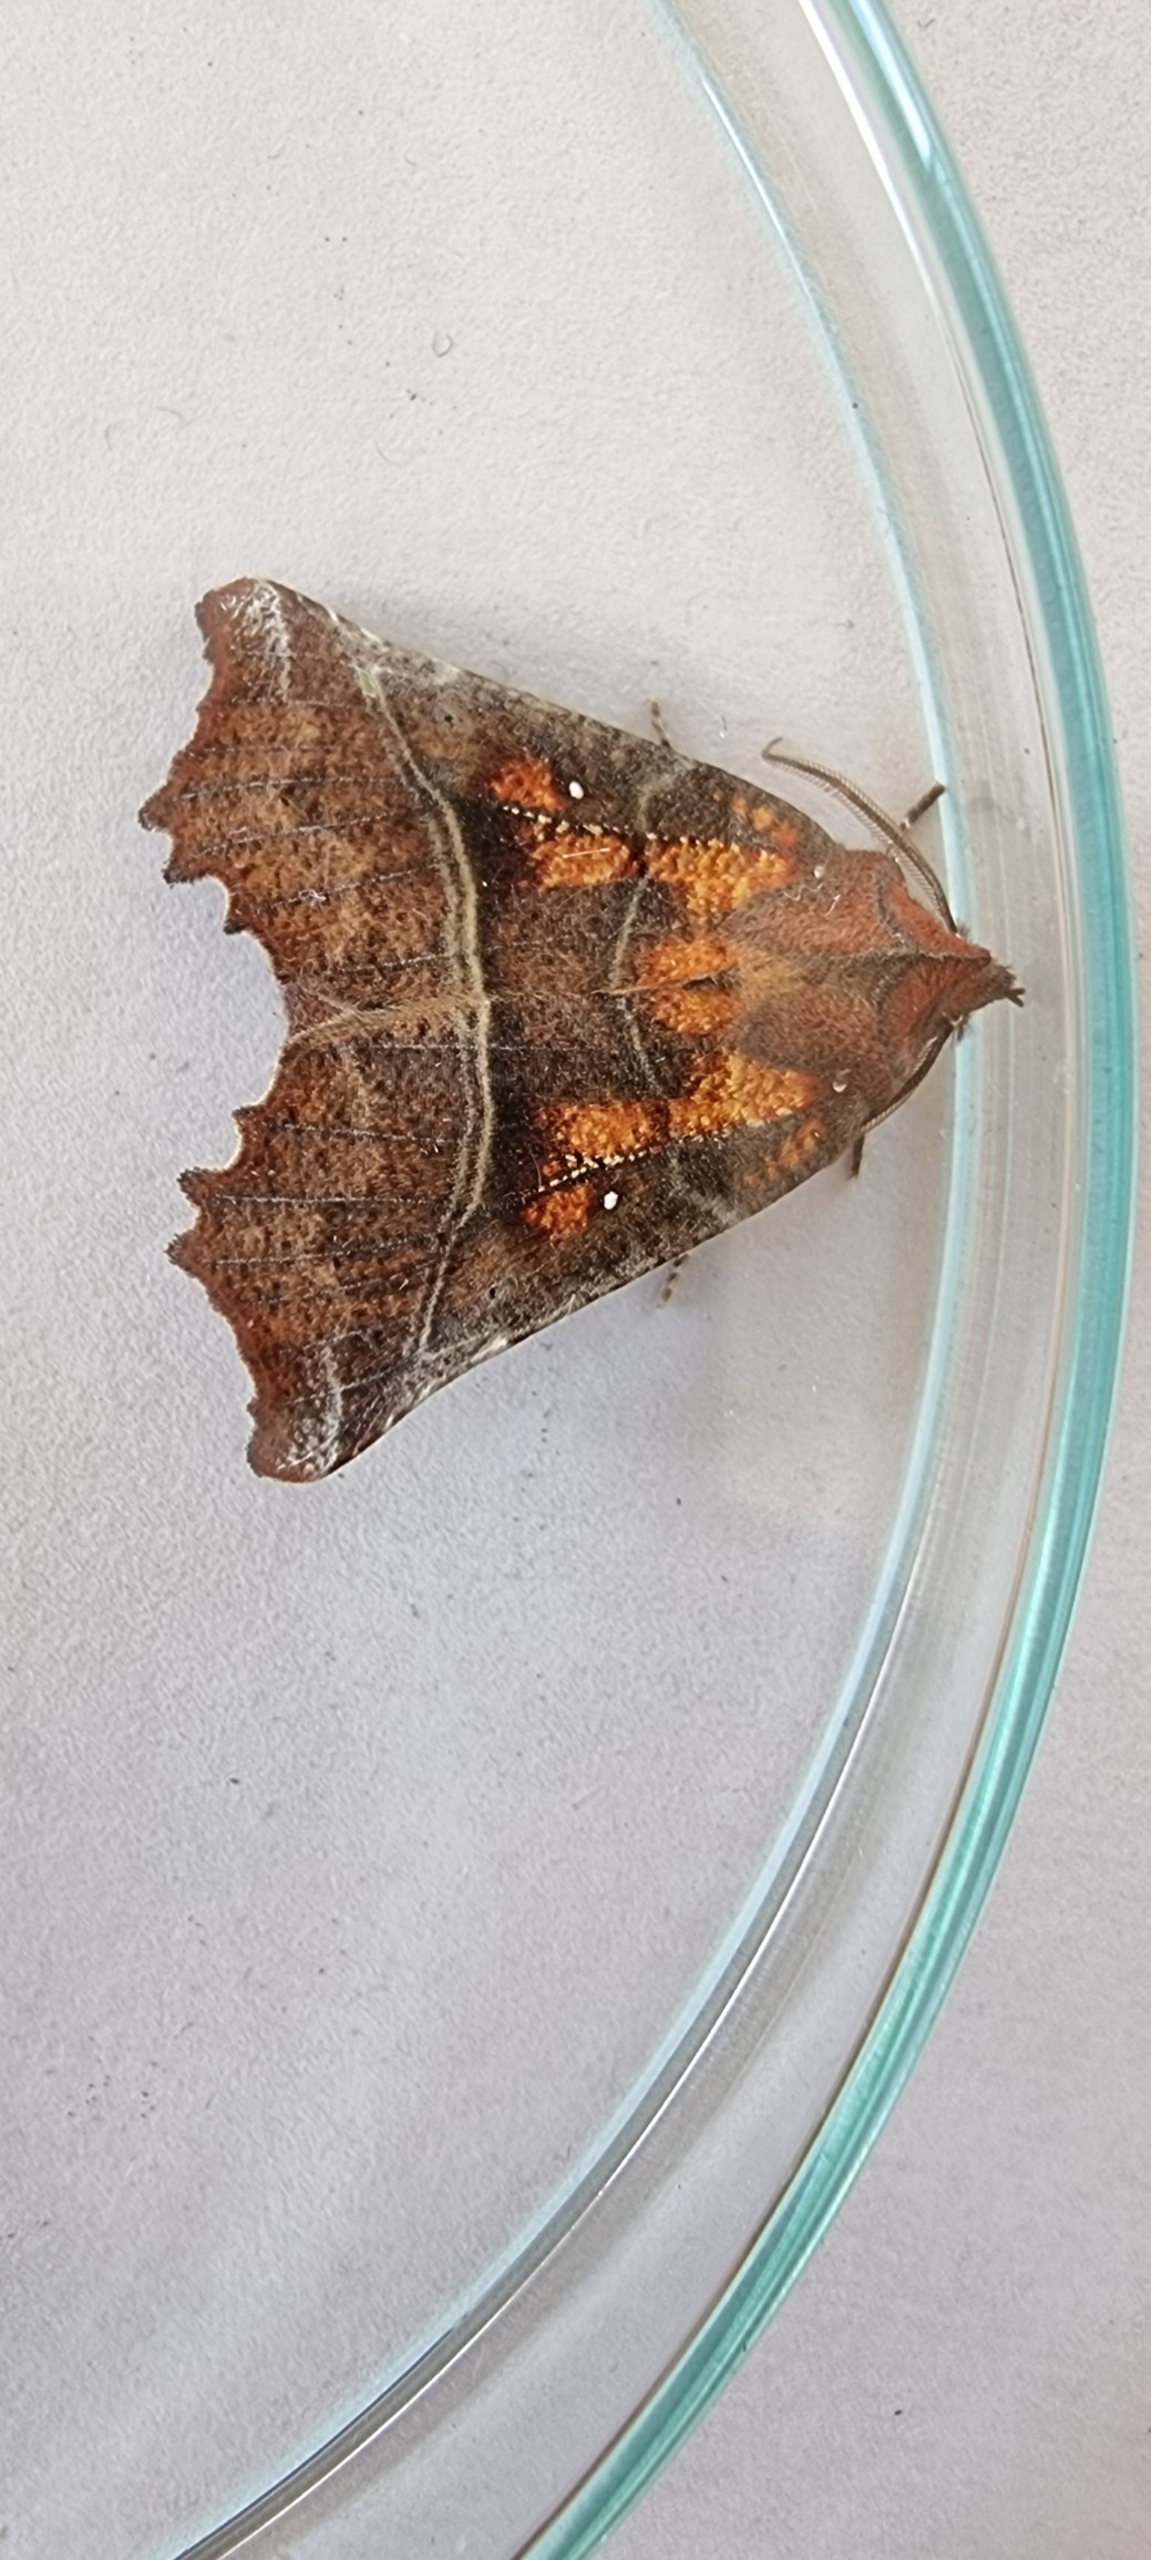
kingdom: Animalia
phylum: Arthropoda
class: Insecta
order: Lepidoptera
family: Erebidae
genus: Scoliopteryx
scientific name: Scoliopteryx libatrix
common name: Husmoderugle
